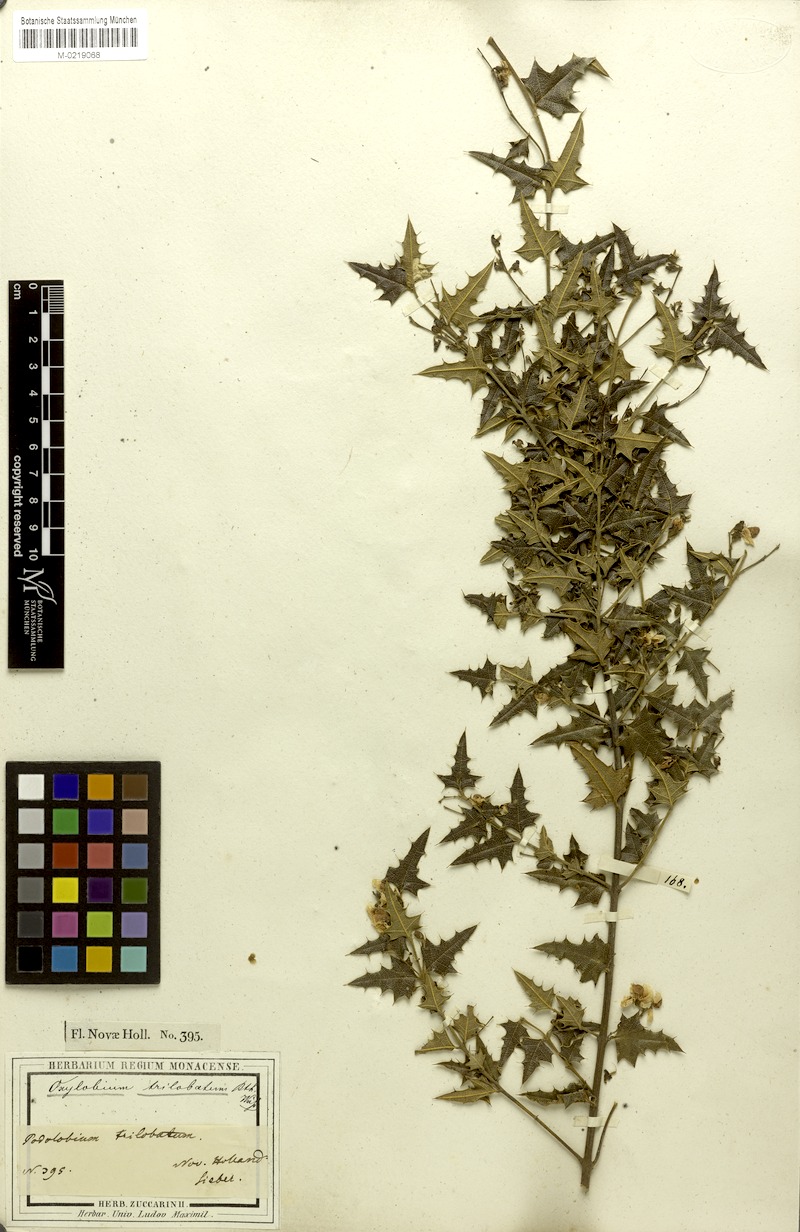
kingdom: Plantae
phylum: Tracheophyta
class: Magnoliopsida
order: Fabales
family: Fabaceae
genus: Podolobium
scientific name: Podolobium ilicifolium
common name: Native holly
